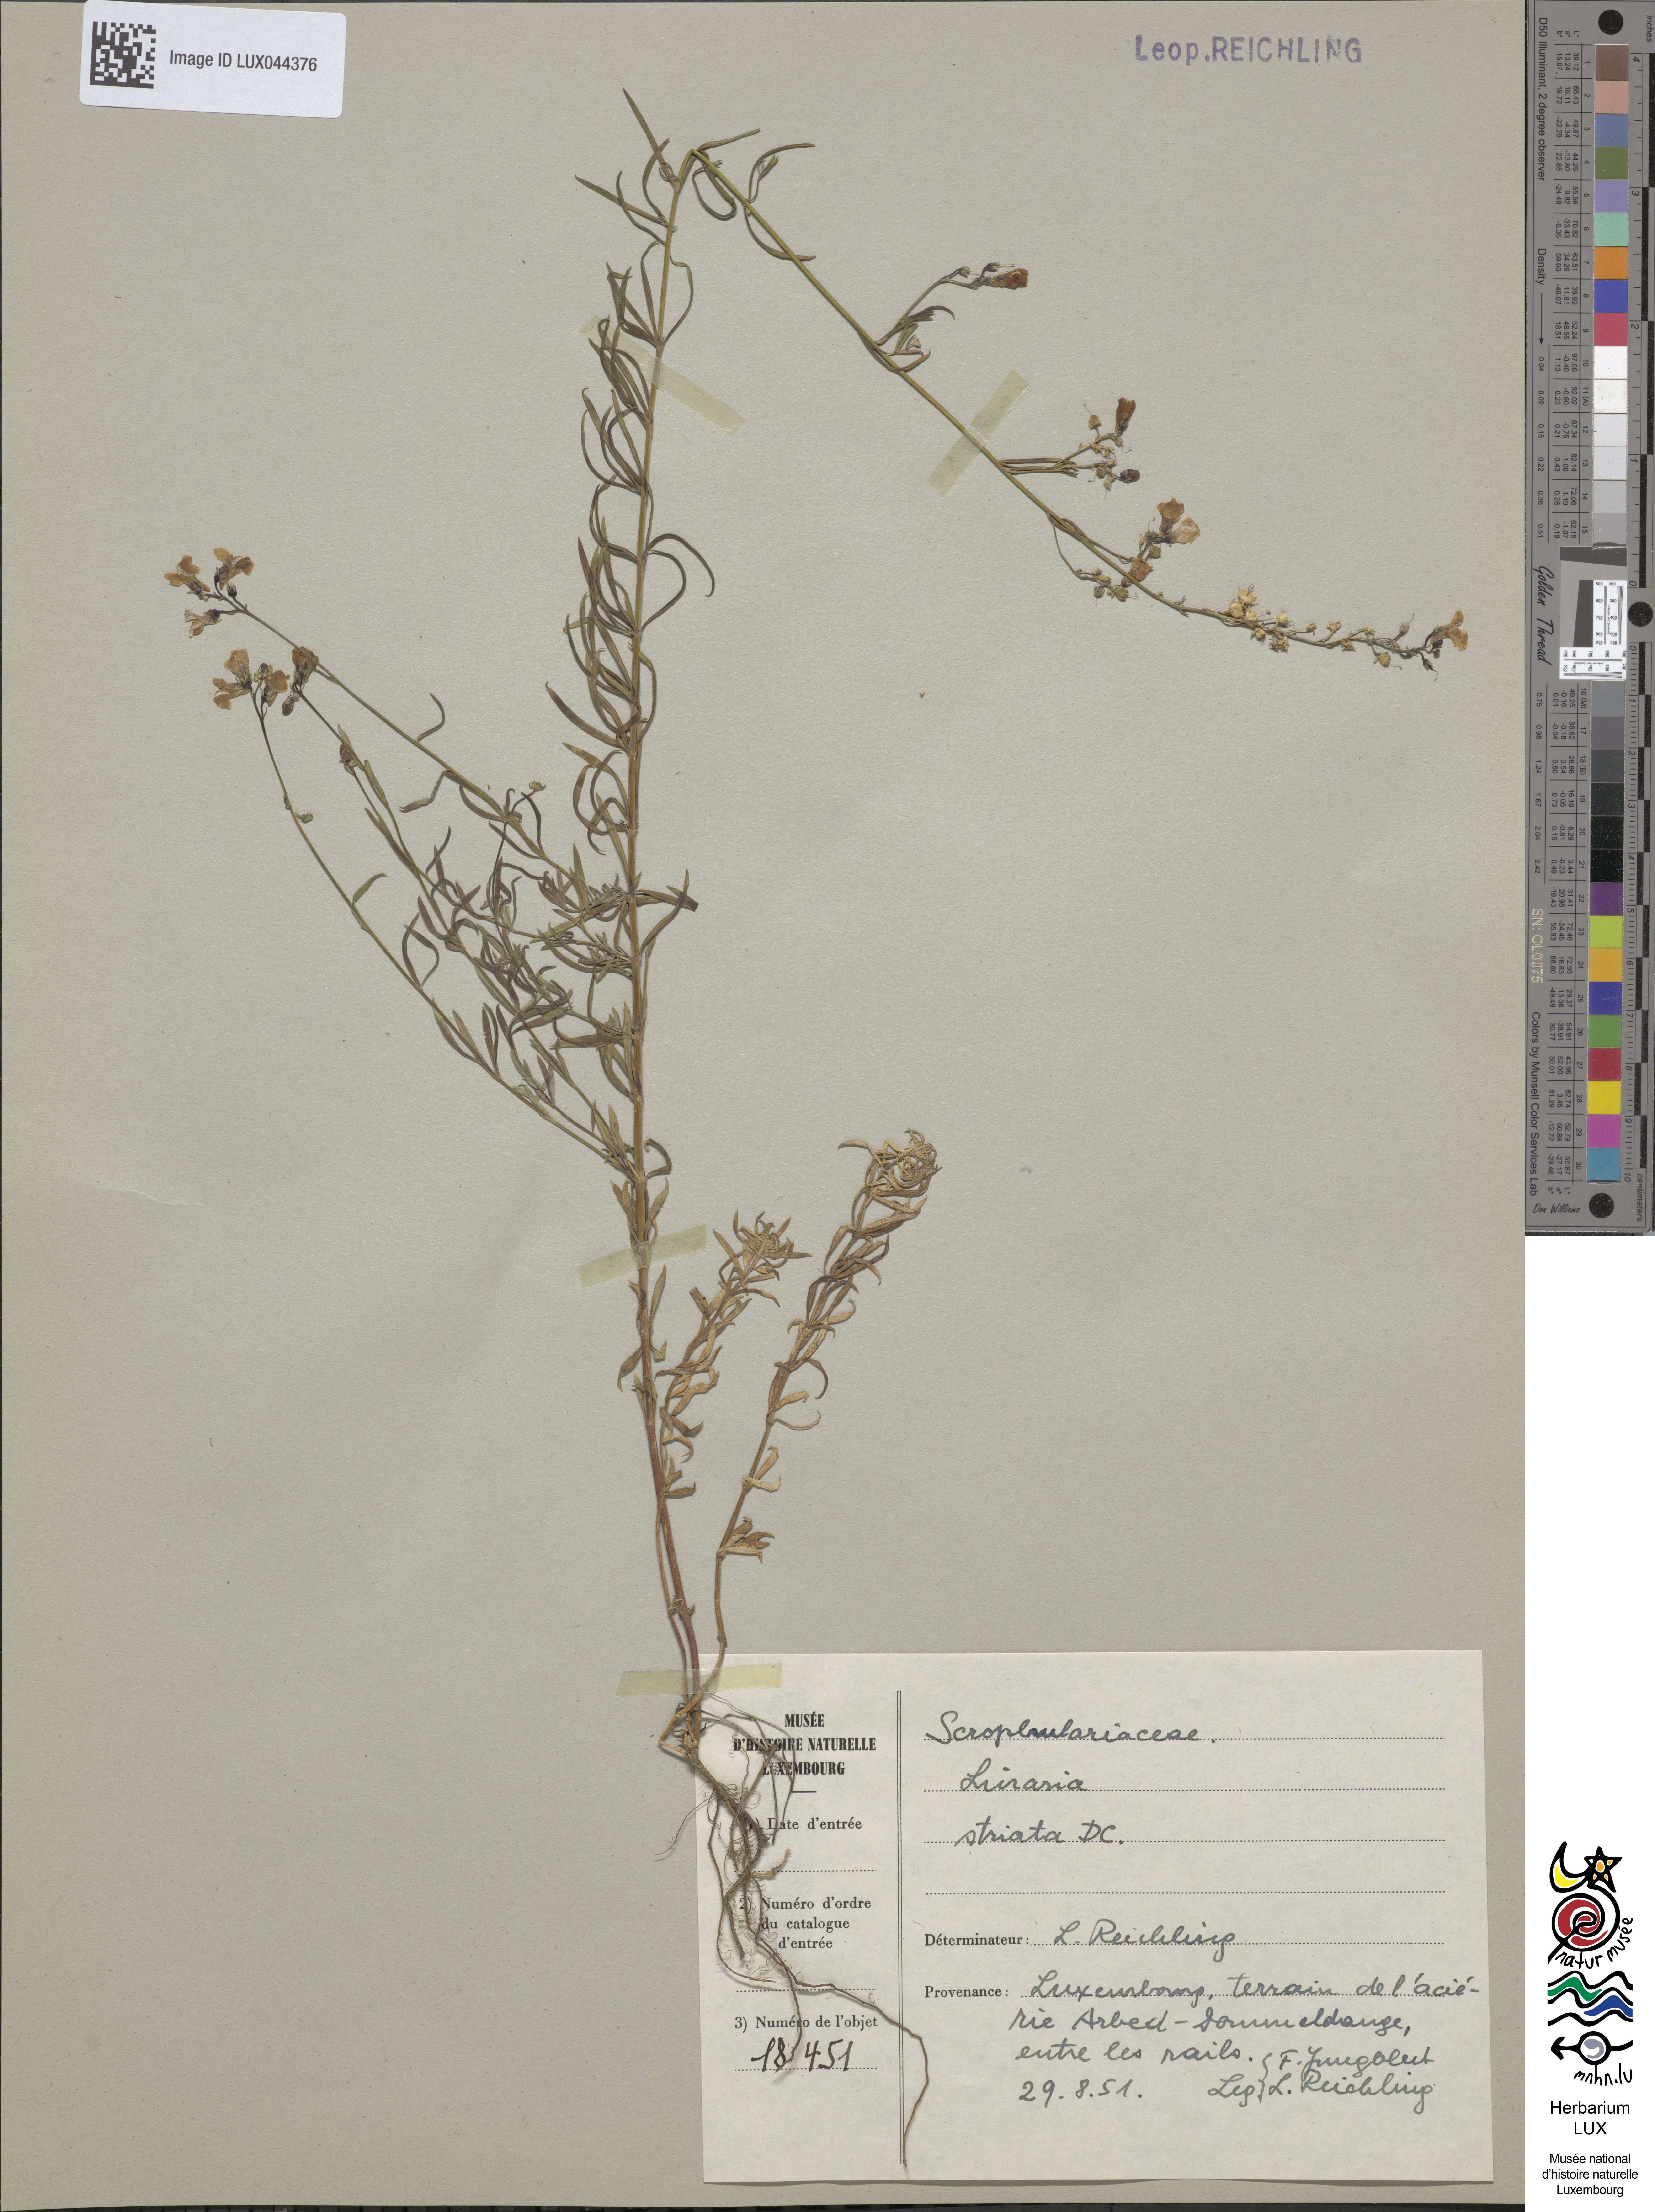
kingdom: Plantae
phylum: Tracheophyta
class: Magnoliopsida
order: Lamiales
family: Plantaginaceae
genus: Linaria
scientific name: Linaria repens
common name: Pale toadflax
